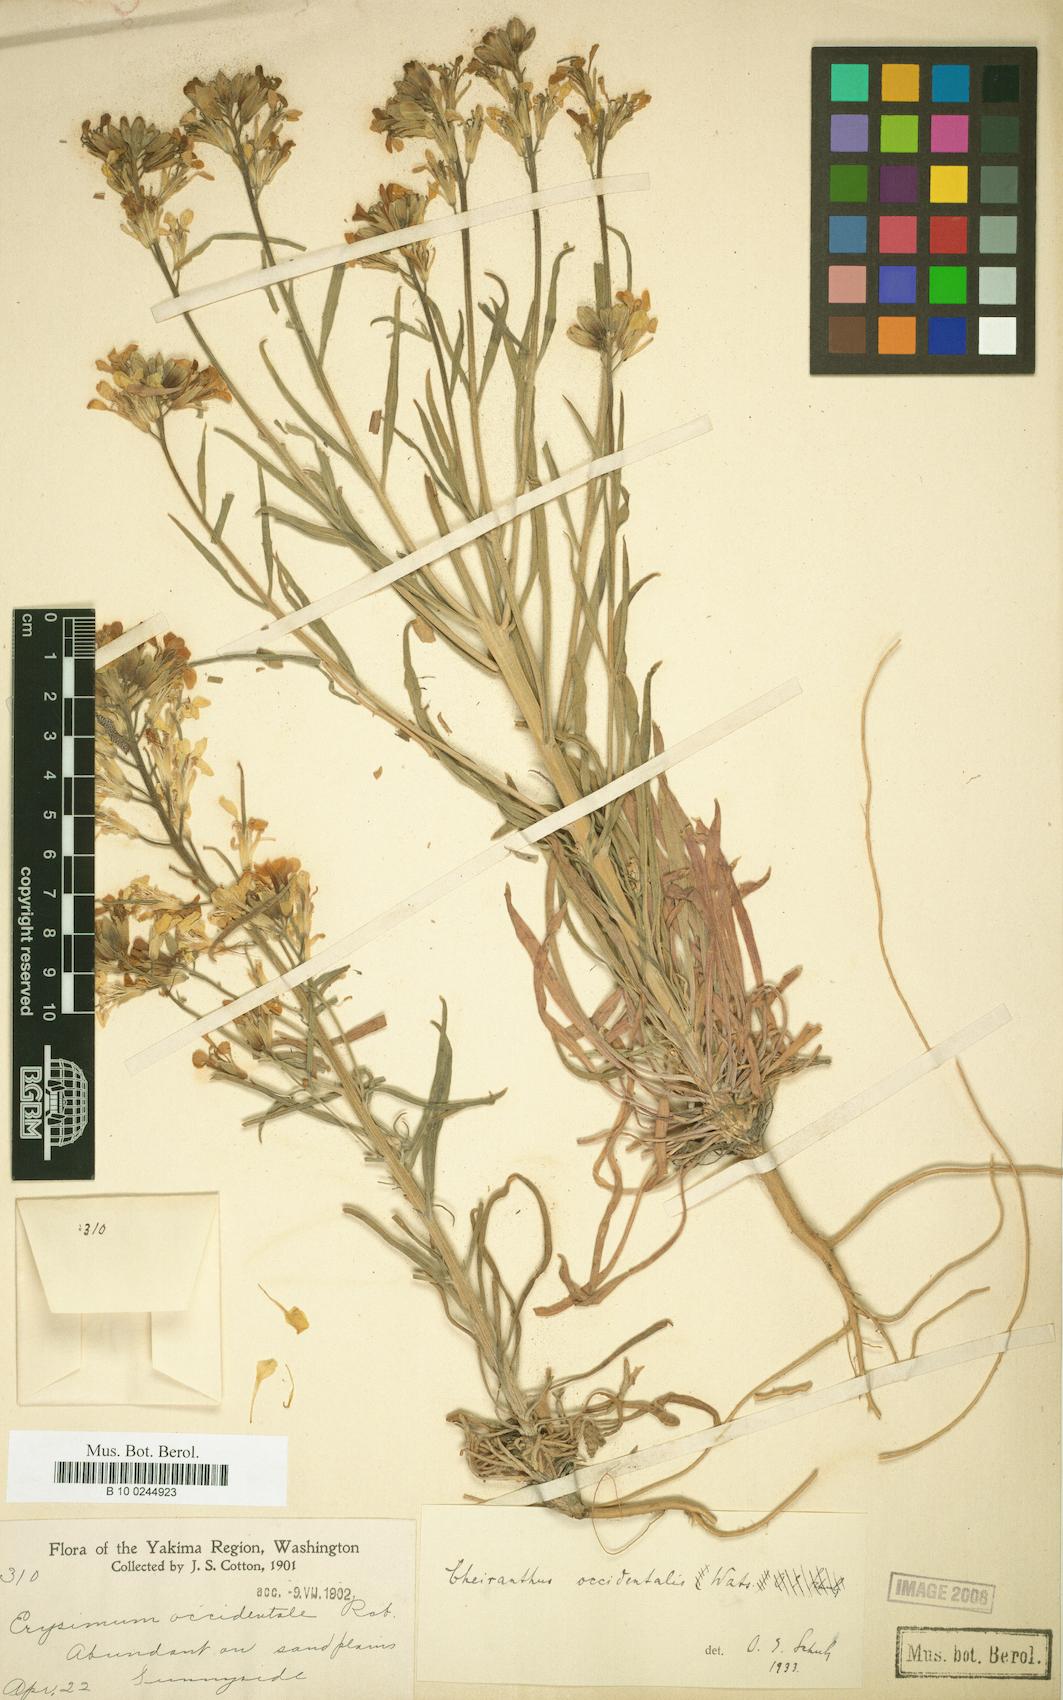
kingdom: Plantae
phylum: Tracheophyta
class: Magnoliopsida
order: Brassicales
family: Brassicaceae
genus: Erysimum
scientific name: Erysimum occidentale
